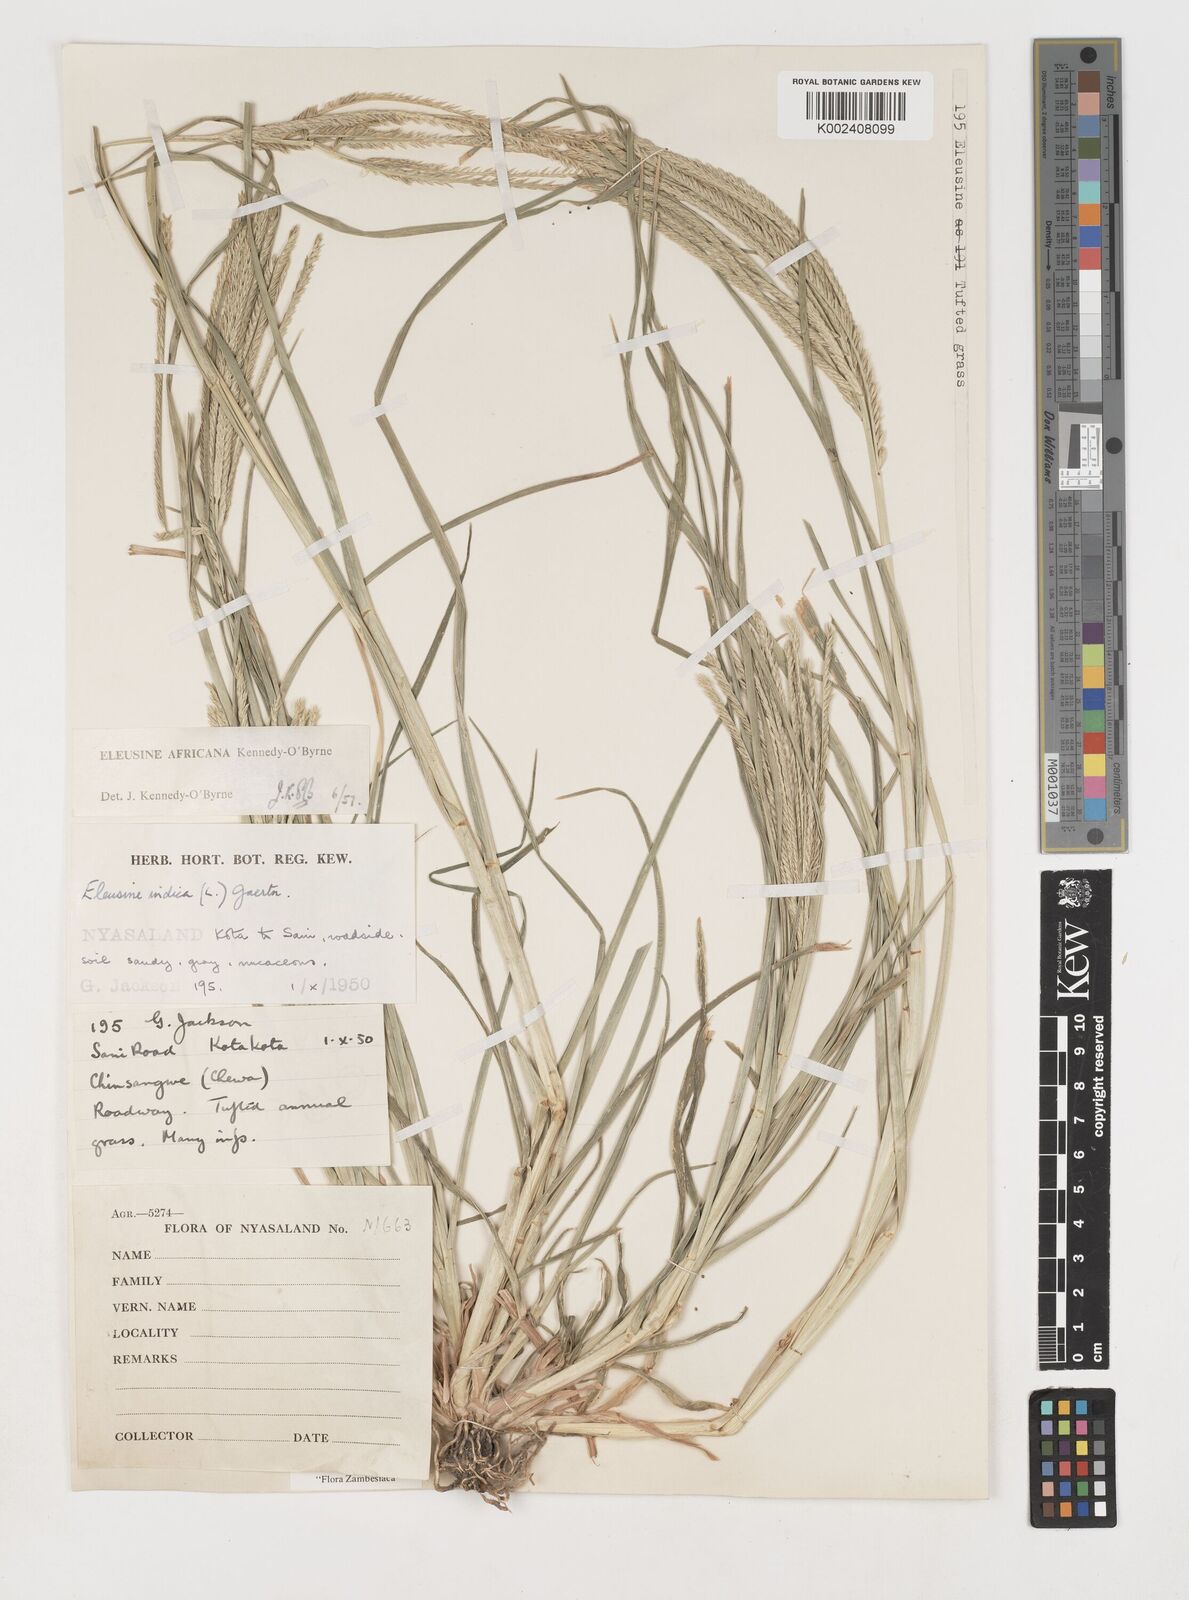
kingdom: Plantae
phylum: Tracheophyta
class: Liliopsida
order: Poales
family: Poaceae
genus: Eleusine
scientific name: Eleusine africana
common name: Wild african finger millet
